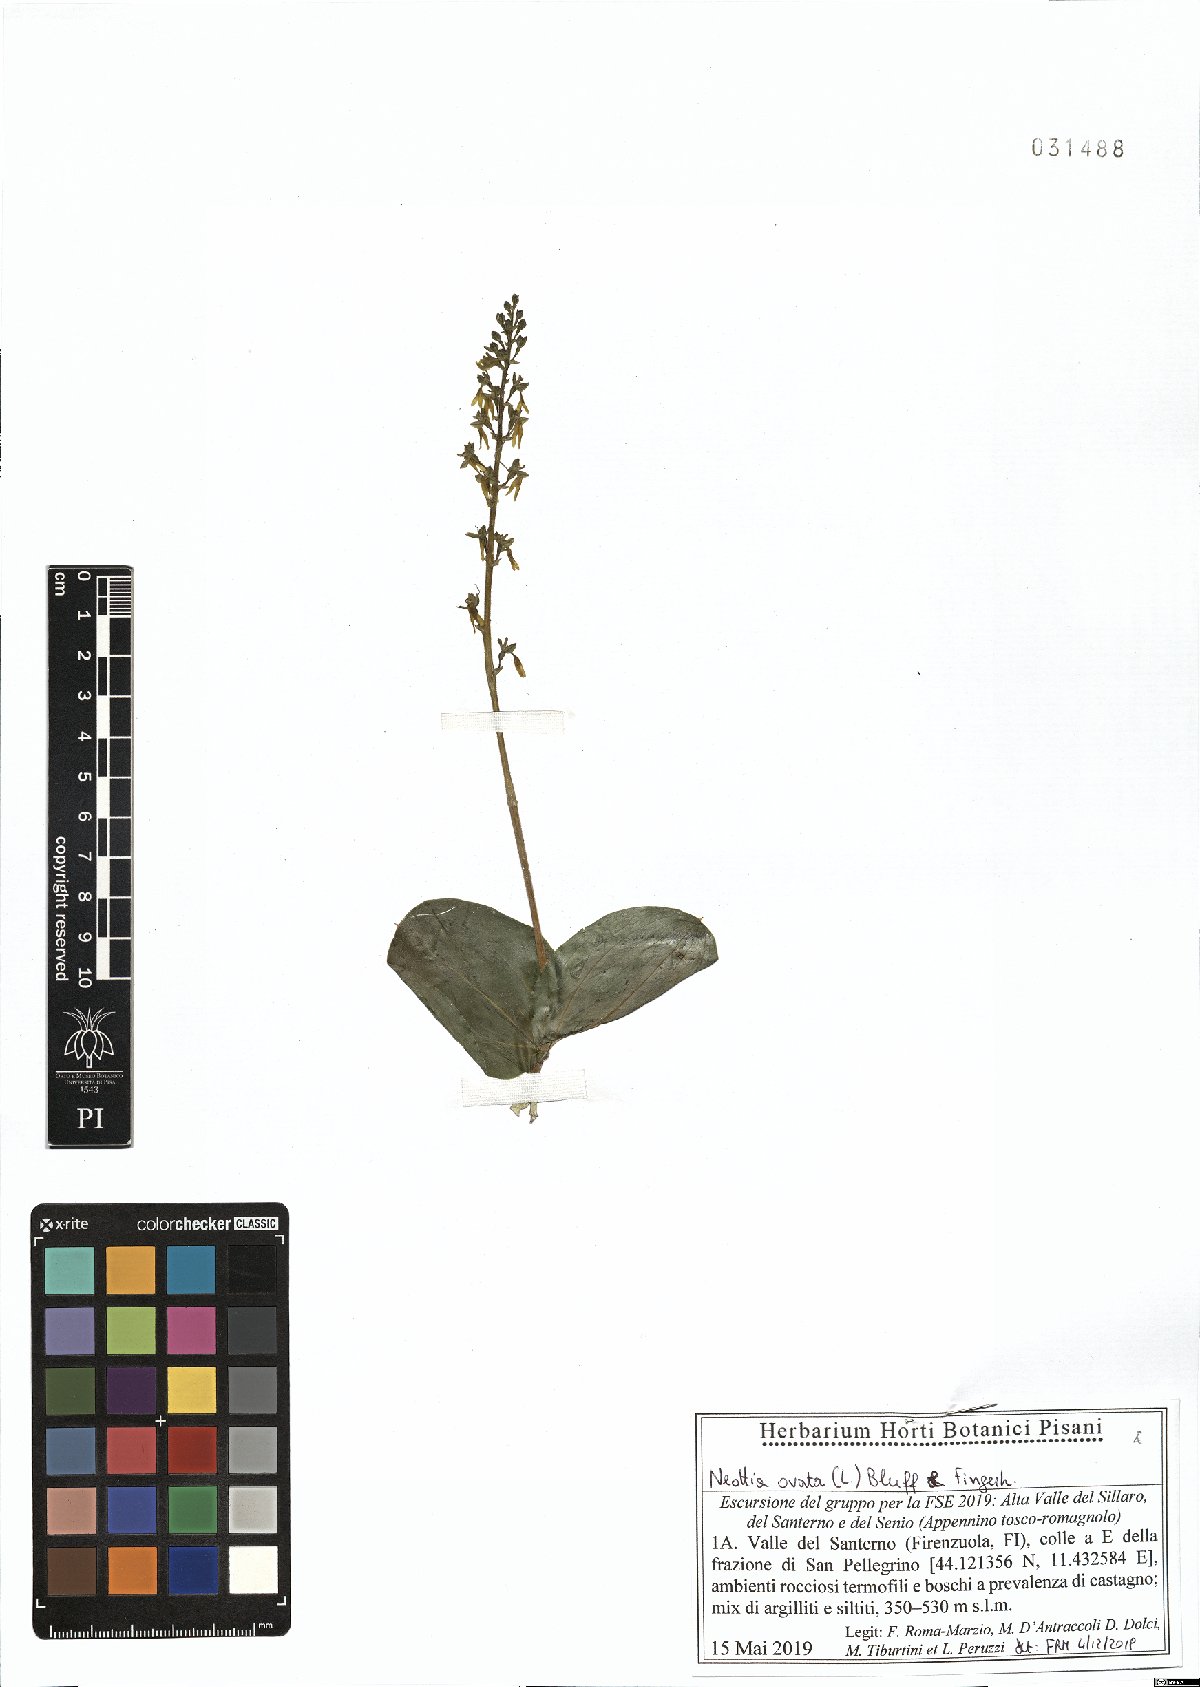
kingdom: Plantae
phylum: Tracheophyta
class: Liliopsida
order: Asparagales
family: Orchidaceae
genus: Neottia
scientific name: Neottia ovata
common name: Common twayblade
